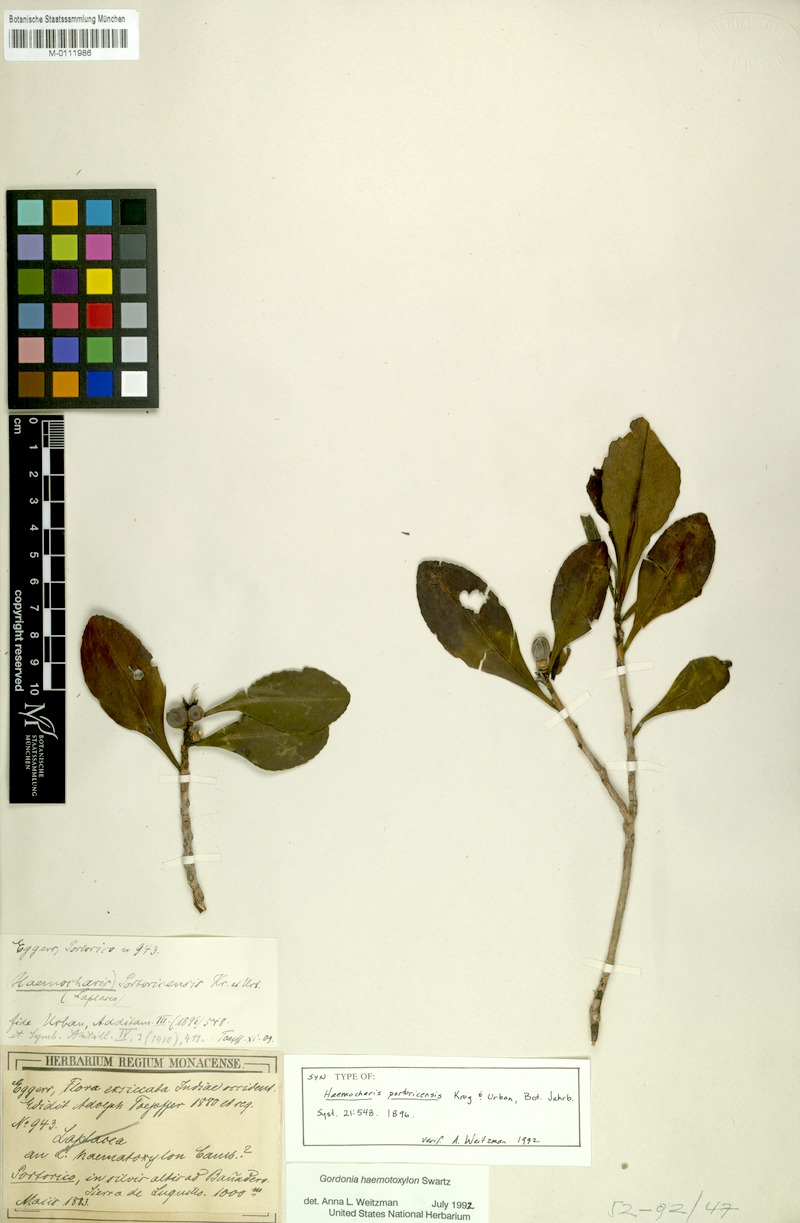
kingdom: Plantae
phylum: Tracheophyta
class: Magnoliopsida
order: Ericales
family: Theaceae
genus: Gordonia
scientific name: Gordonia portoricensis
